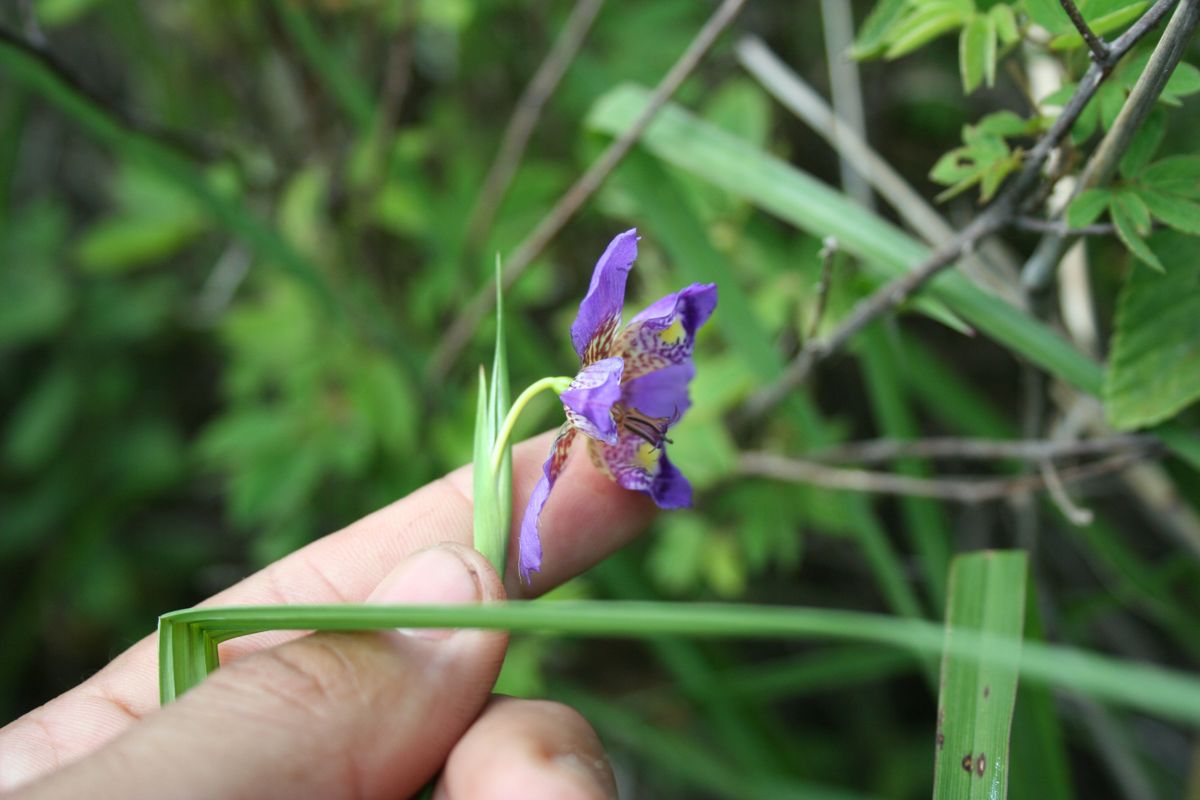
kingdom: Plantae
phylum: Tracheophyta
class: Liliopsida
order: Asparagales
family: Iridaceae
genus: Alophia
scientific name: Alophia drummondii
